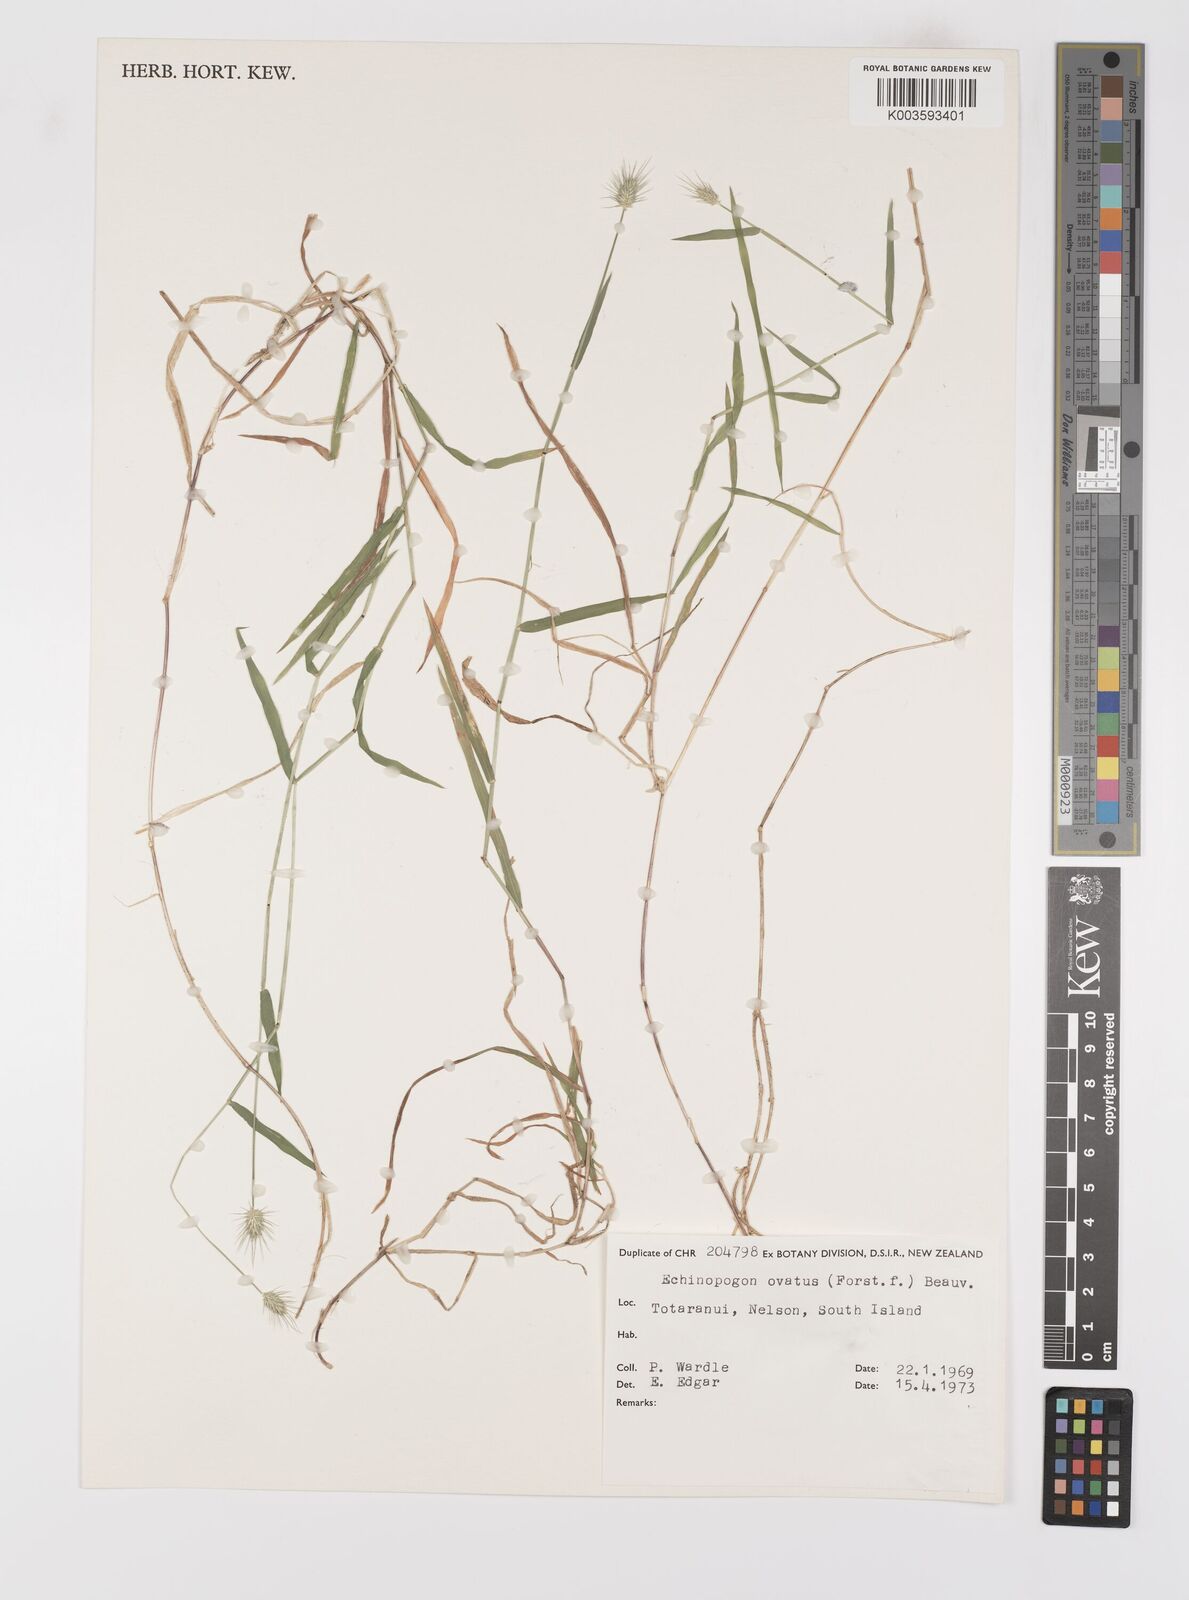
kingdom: Plantae
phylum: Tracheophyta
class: Liliopsida
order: Poales
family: Poaceae
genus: Echinopogon
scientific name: Echinopogon ovatus
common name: Hedgehog-grass
